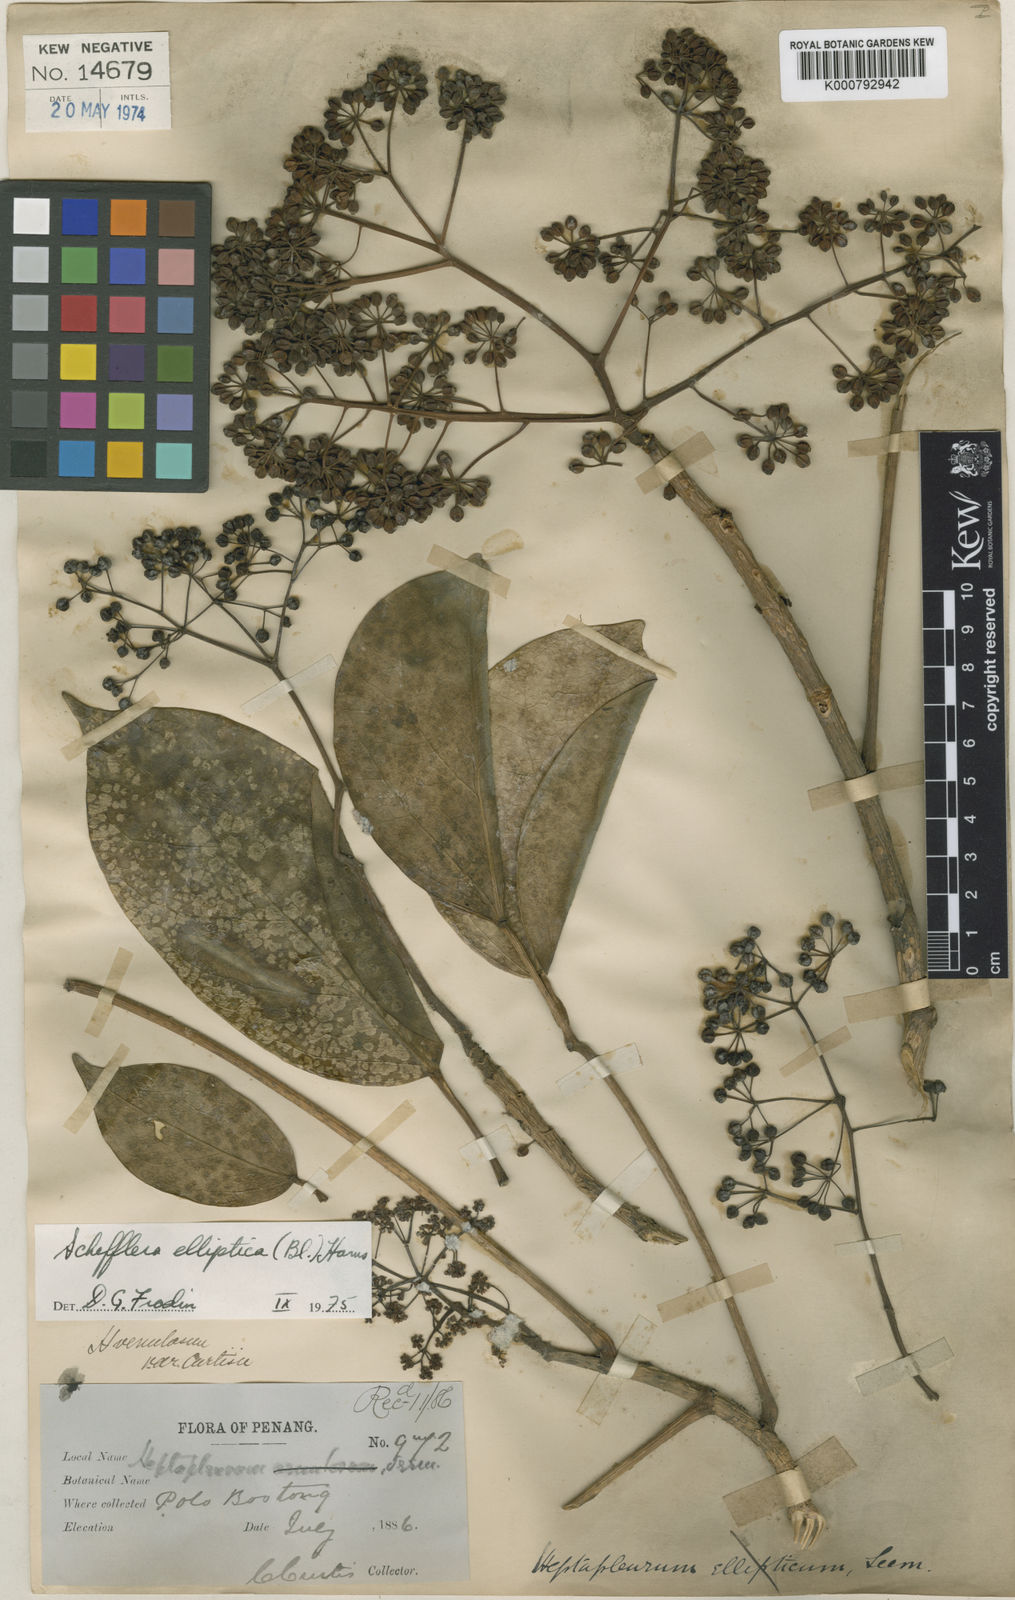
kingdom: Plantae
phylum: Tracheophyta
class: Magnoliopsida
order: Apiales
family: Araliaceae
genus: Heptapleurum
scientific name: Heptapleurum ellipticum
